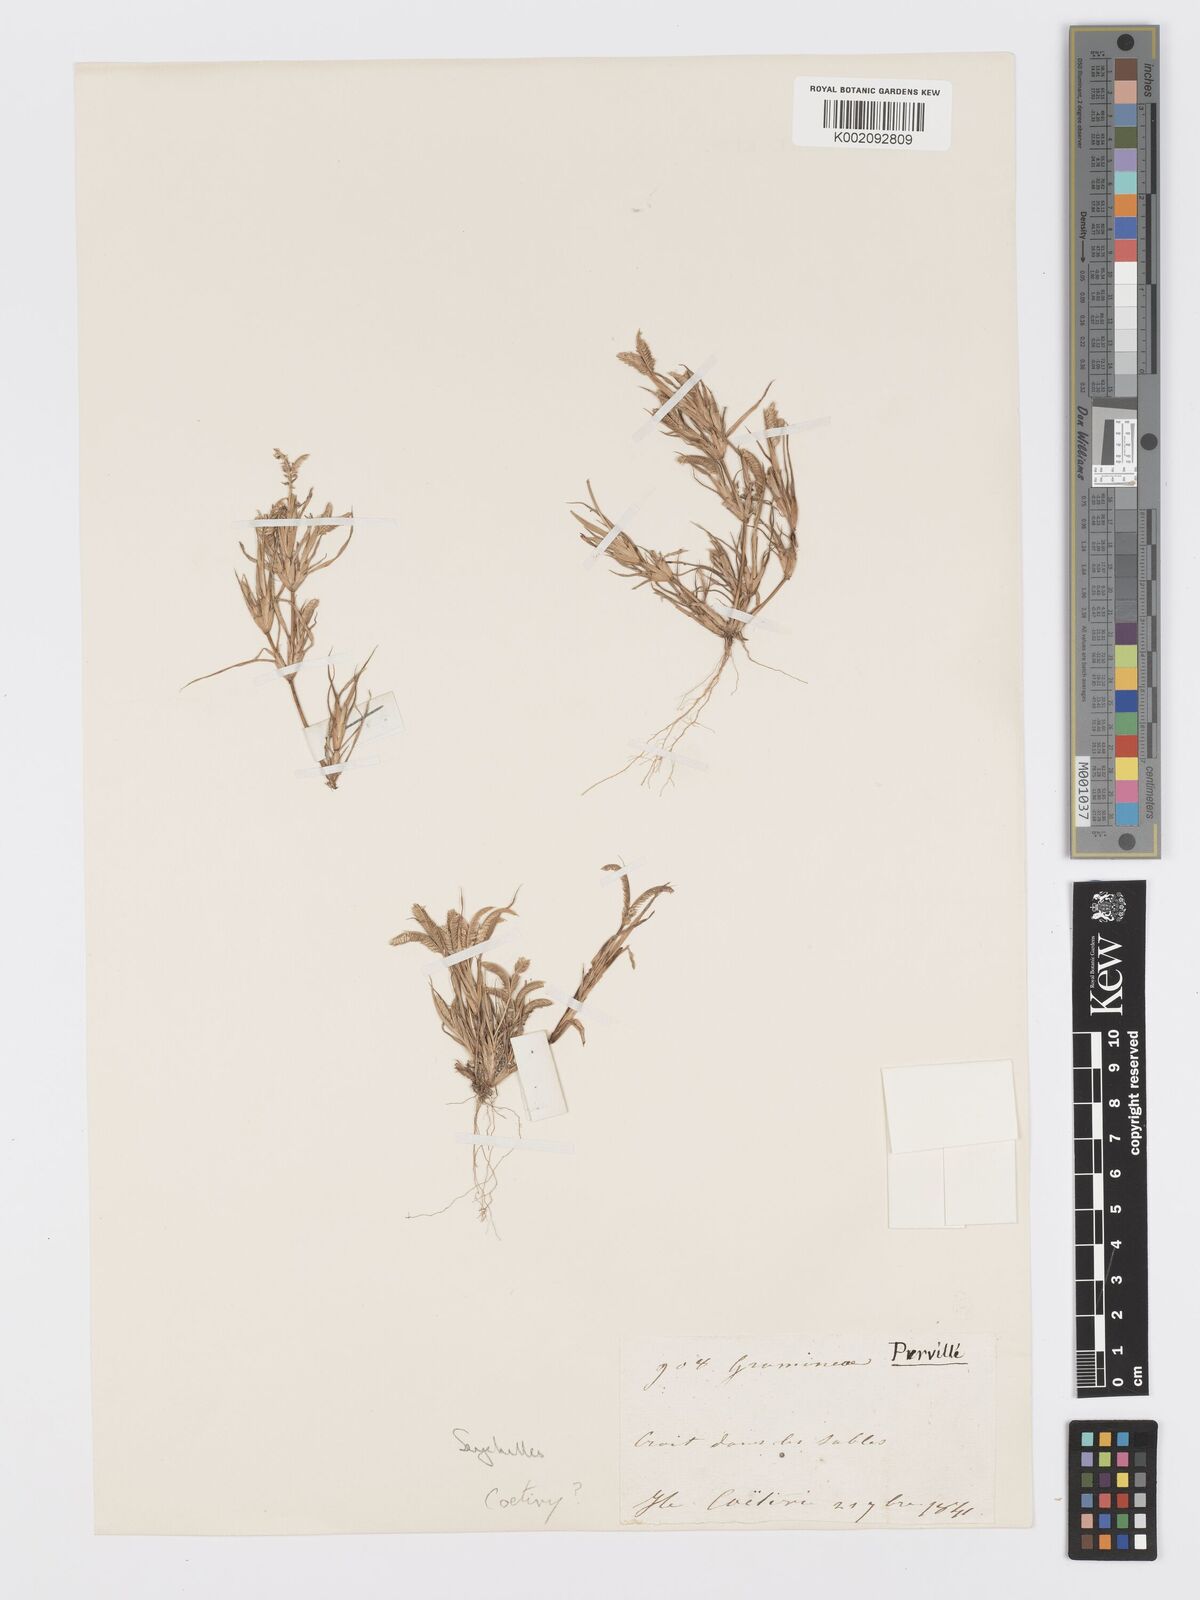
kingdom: Plantae
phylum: Tracheophyta
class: Liliopsida
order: Poales
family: Poaceae
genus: Dactyloctenium
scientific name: Dactyloctenium pilosum
